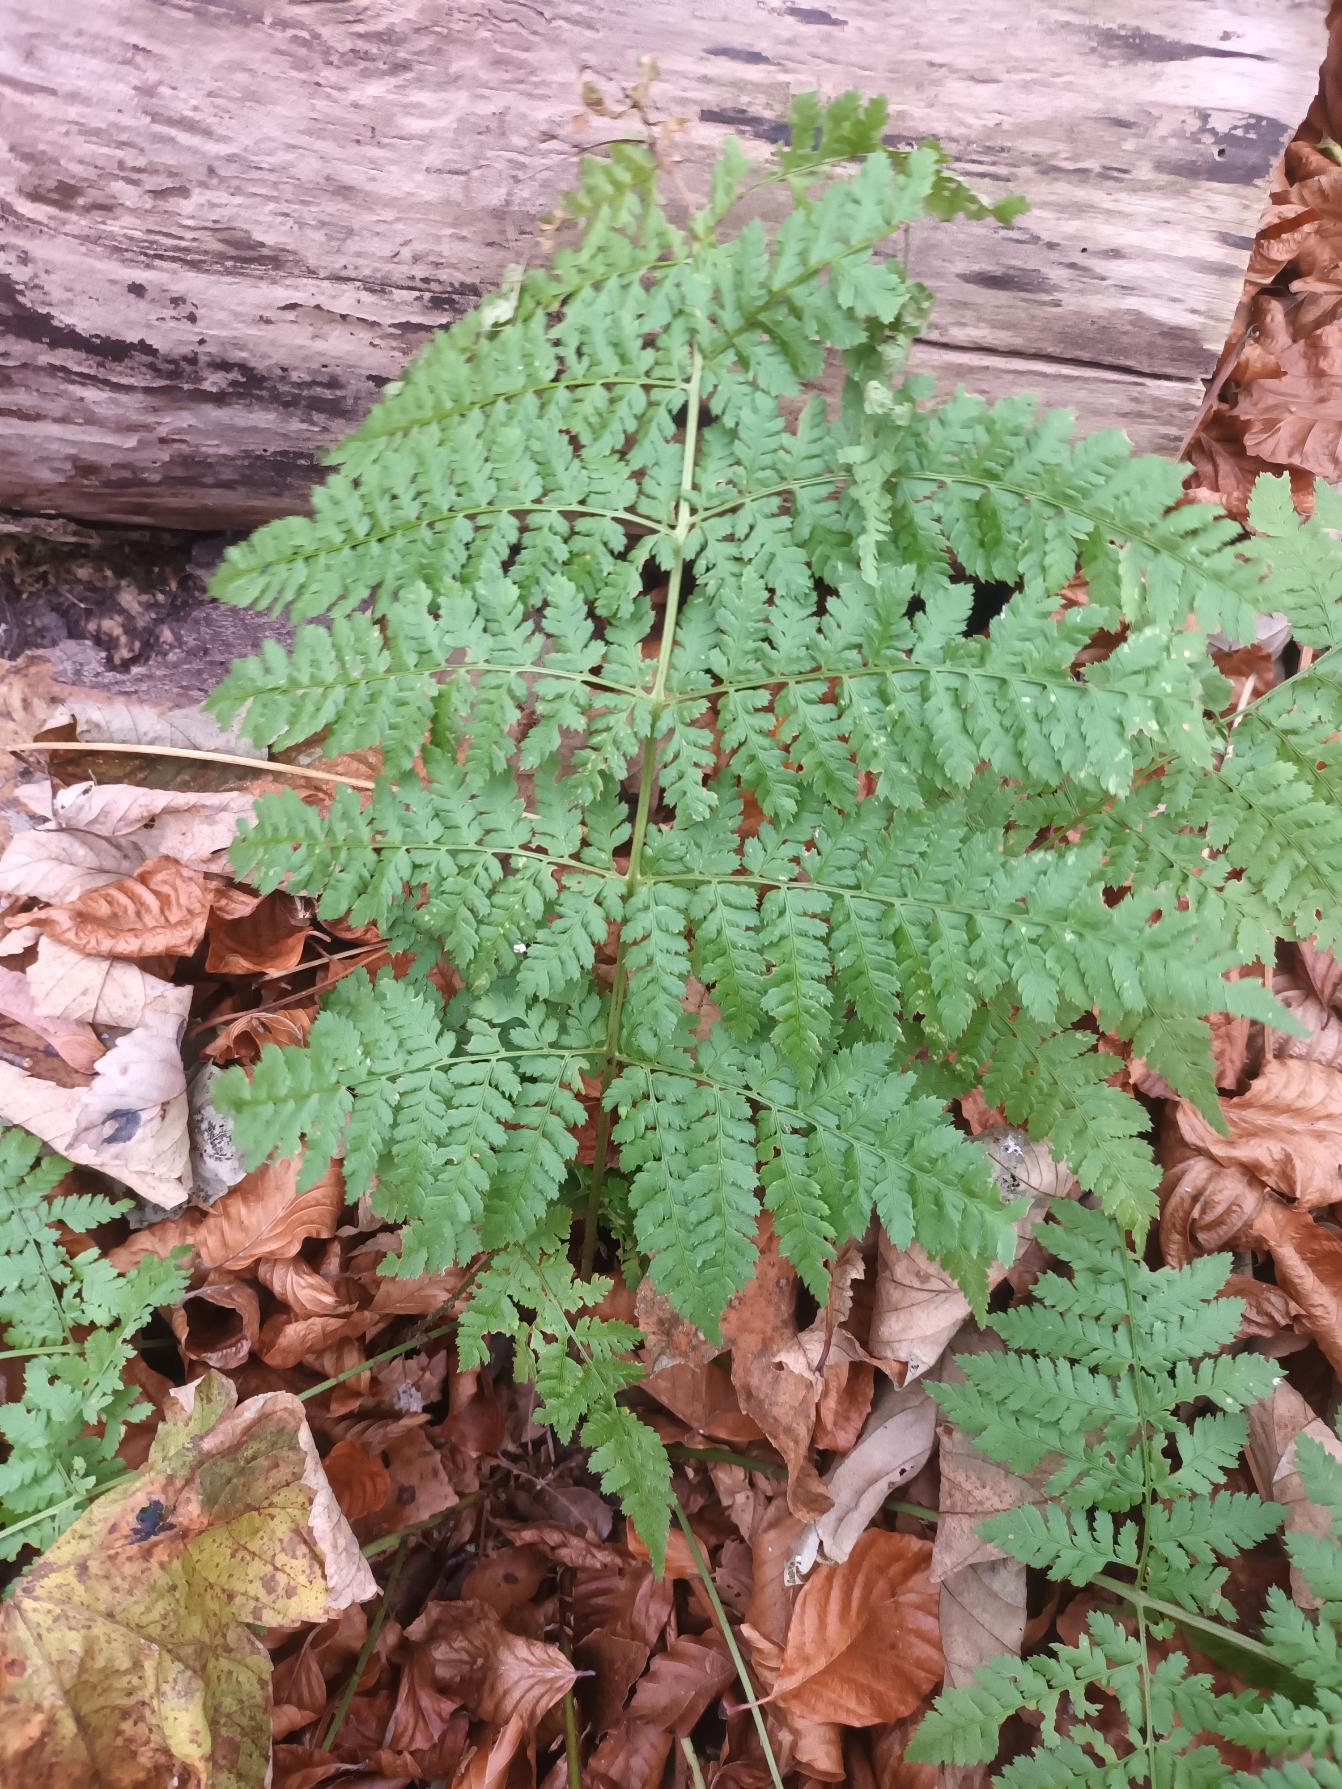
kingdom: Plantae
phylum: Tracheophyta
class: Polypodiopsida
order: Polypodiales
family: Dryopteridaceae
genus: Dryopteris
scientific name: Dryopteris dilatata
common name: Bredbladet mangeløv
